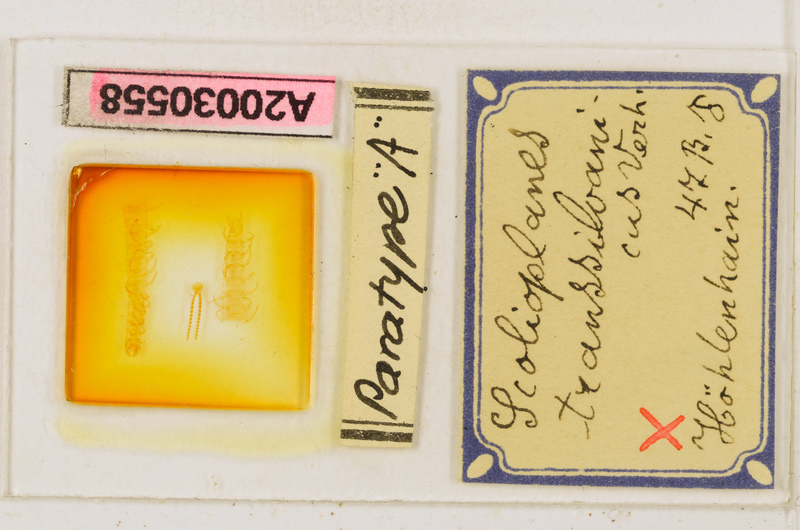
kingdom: Animalia
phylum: Arthropoda
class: Chilopoda
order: Geophilomorpha
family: Linotaeniidae
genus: Strigamia
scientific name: Strigamia transsilvanica
